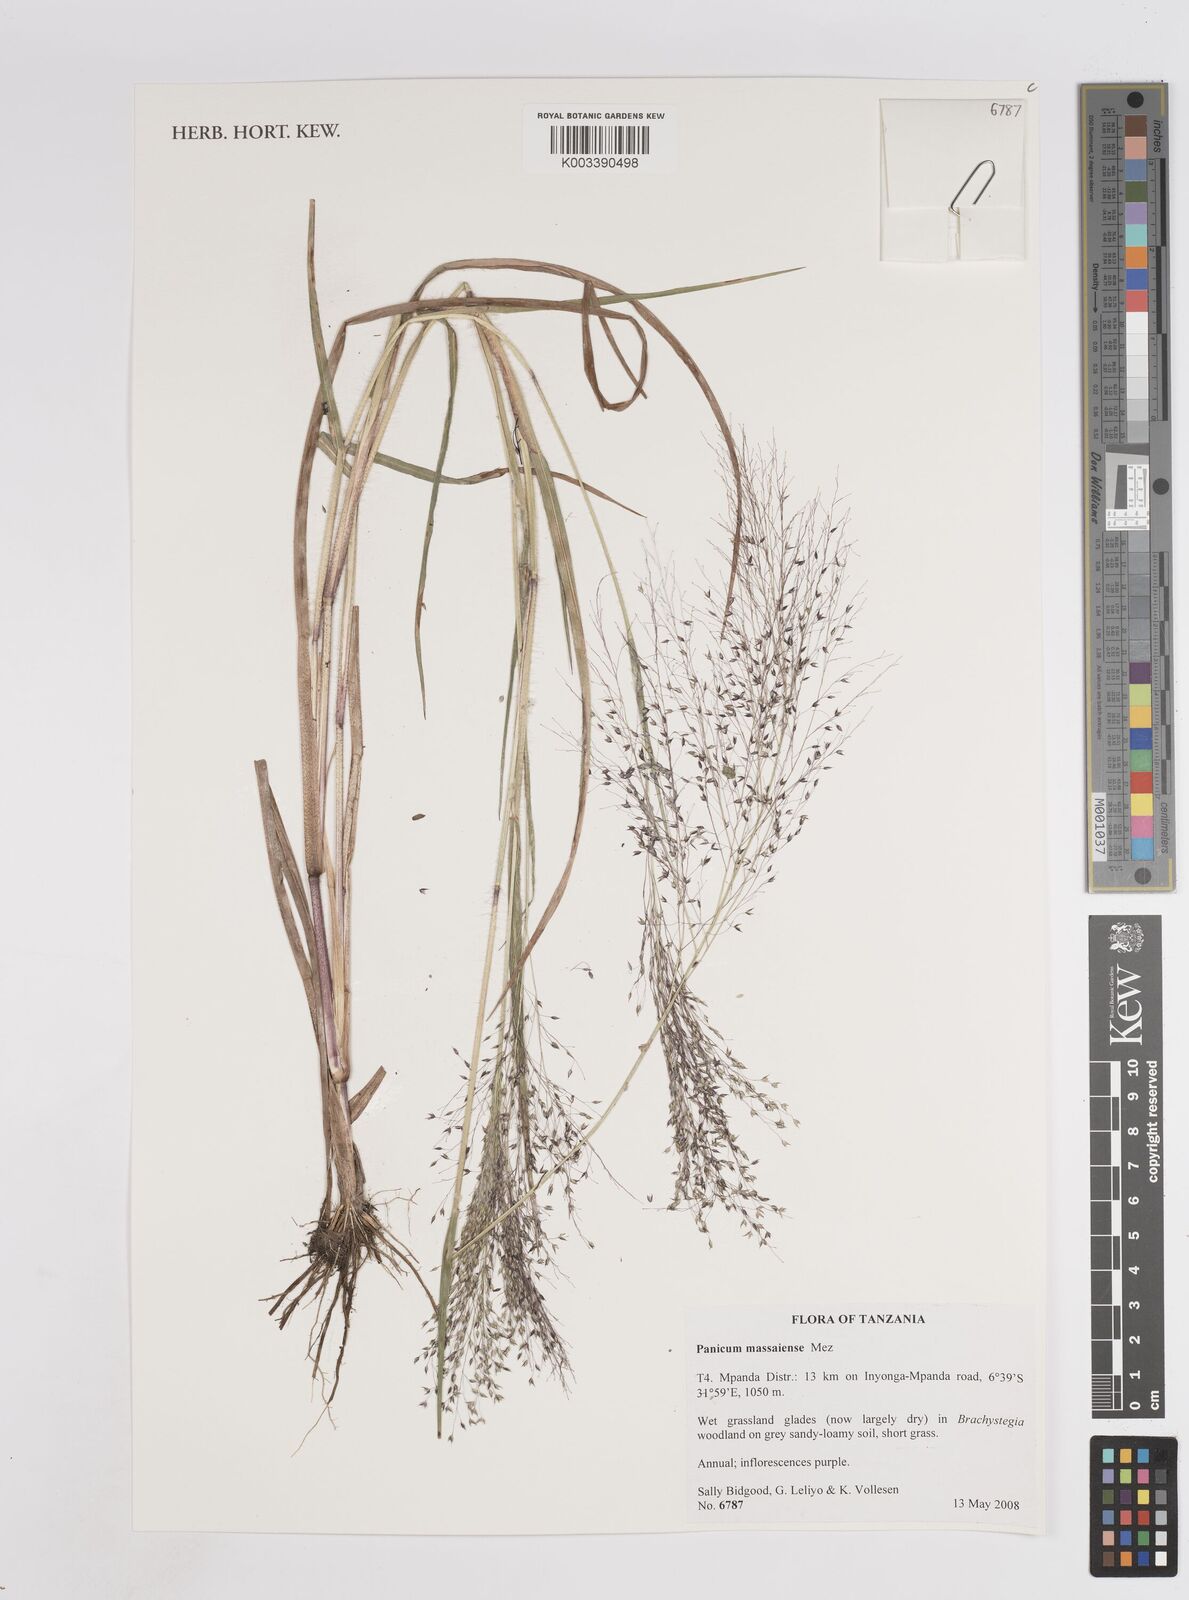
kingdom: Plantae
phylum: Tracheophyta
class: Liliopsida
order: Poales
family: Poaceae
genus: Panicum
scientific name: Panicum massaiense
